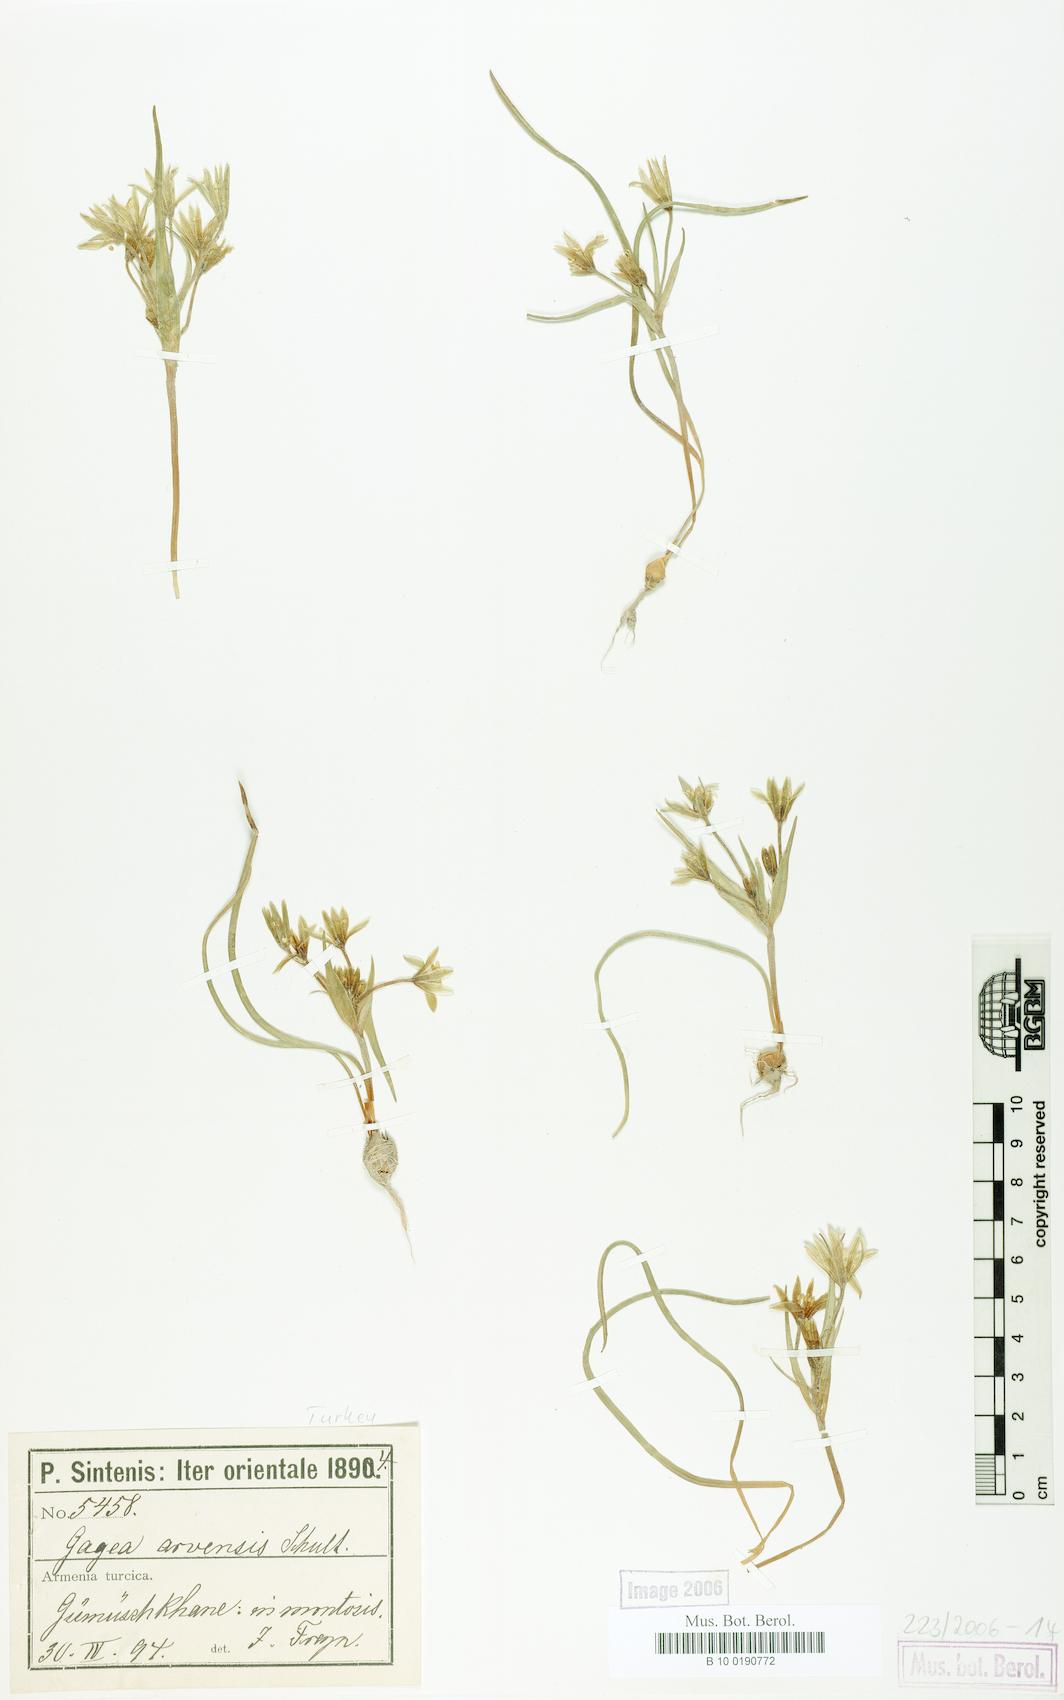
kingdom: Plantae
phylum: Tracheophyta
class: Liliopsida
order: Liliales
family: Liliaceae
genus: Gagea
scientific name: Gagea villosa
